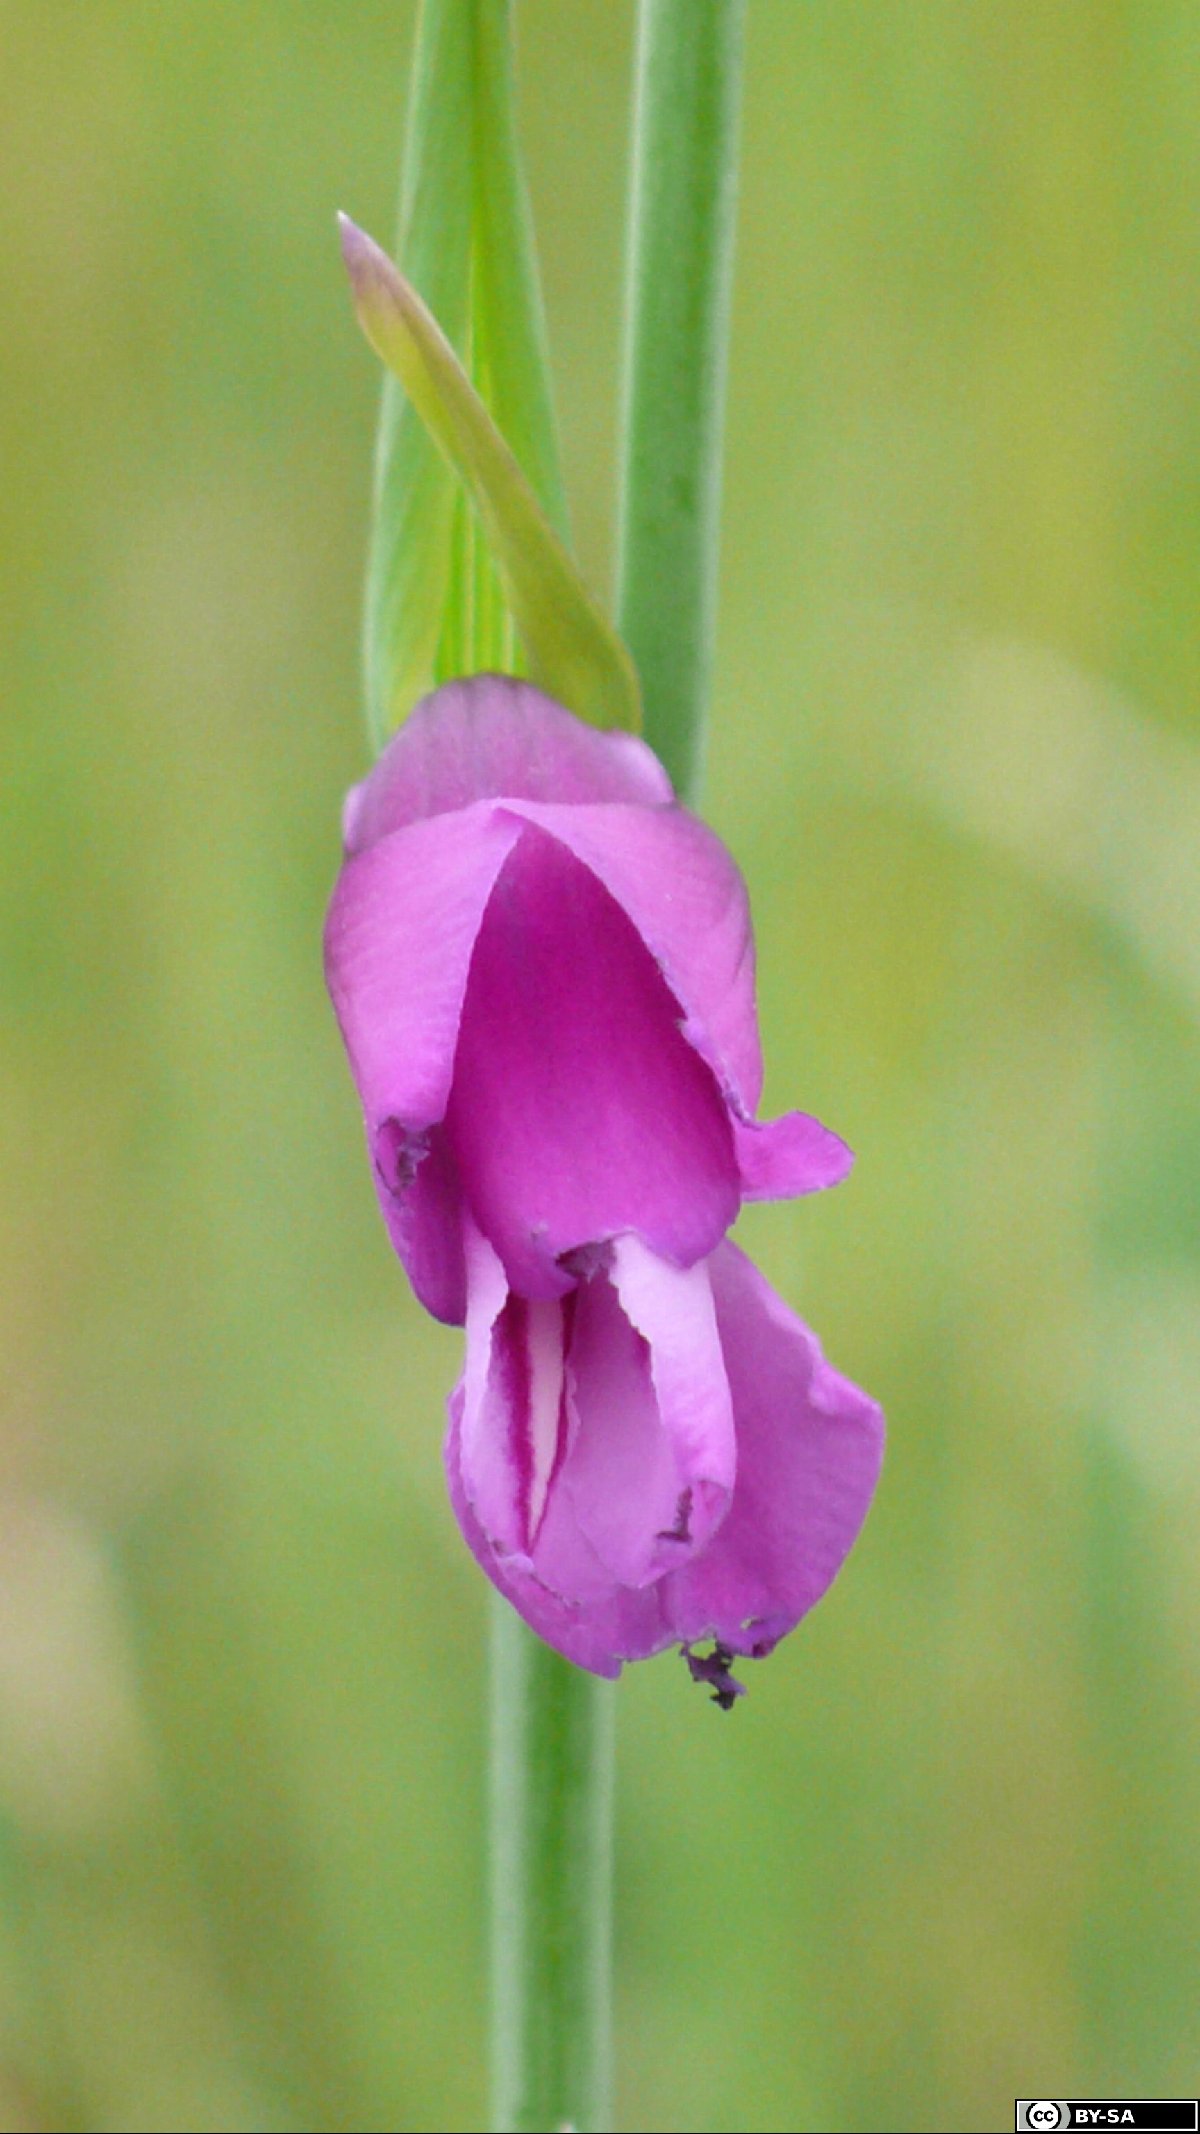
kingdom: Plantae
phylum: Tracheophyta
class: Liliopsida
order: Asparagales
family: Iridaceae
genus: Gladiolus
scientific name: Gladiolus palustris
